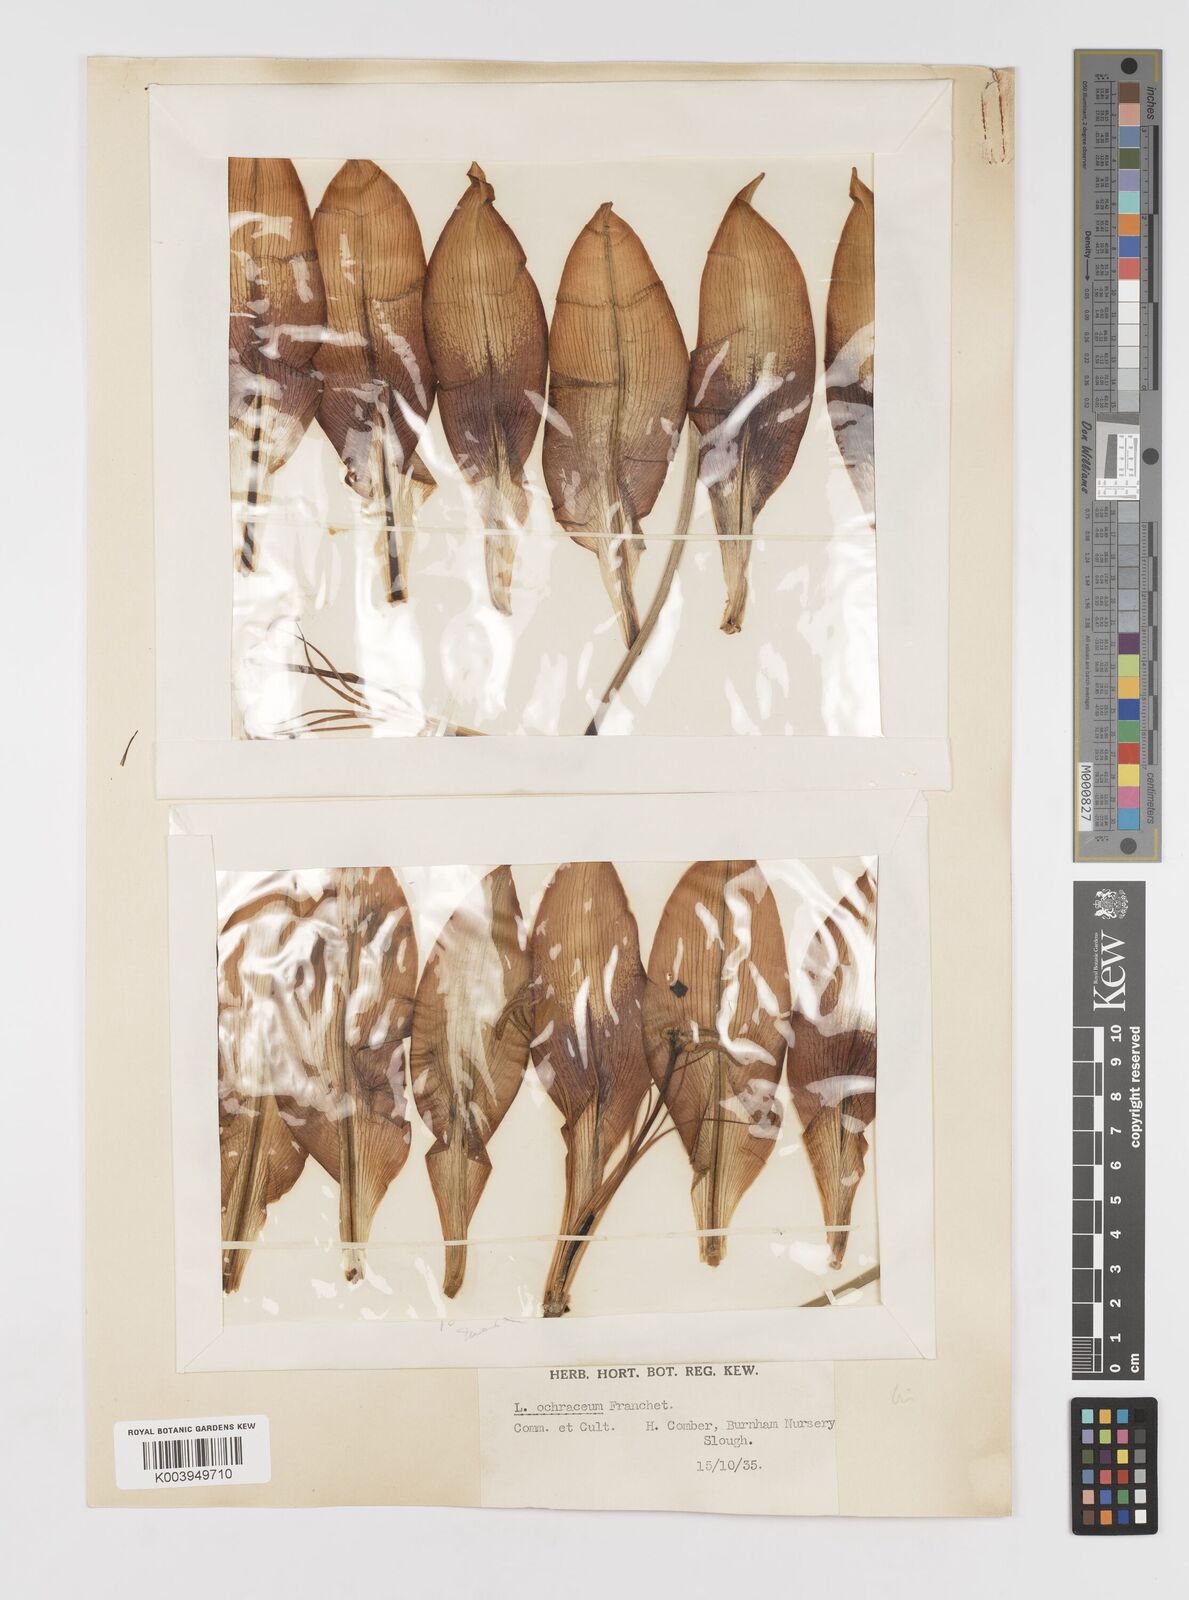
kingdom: Plantae
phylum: Tracheophyta
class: Liliopsida
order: Liliales
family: Liliaceae
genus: Lilium
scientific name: Lilium primulinum
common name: Ochre lily
